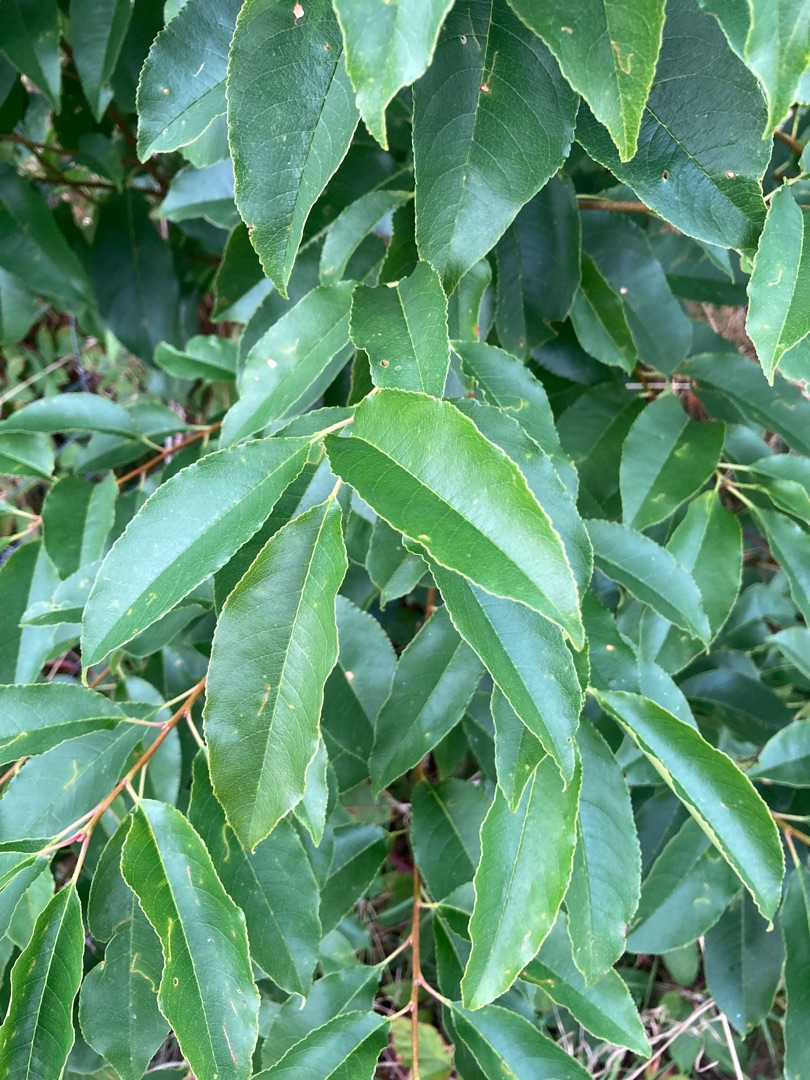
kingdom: Plantae
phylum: Tracheophyta
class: Magnoliopsida
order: Rosales
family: Rosaceae
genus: Prunus
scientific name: Prunus serotina
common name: Glansbladet hæg
